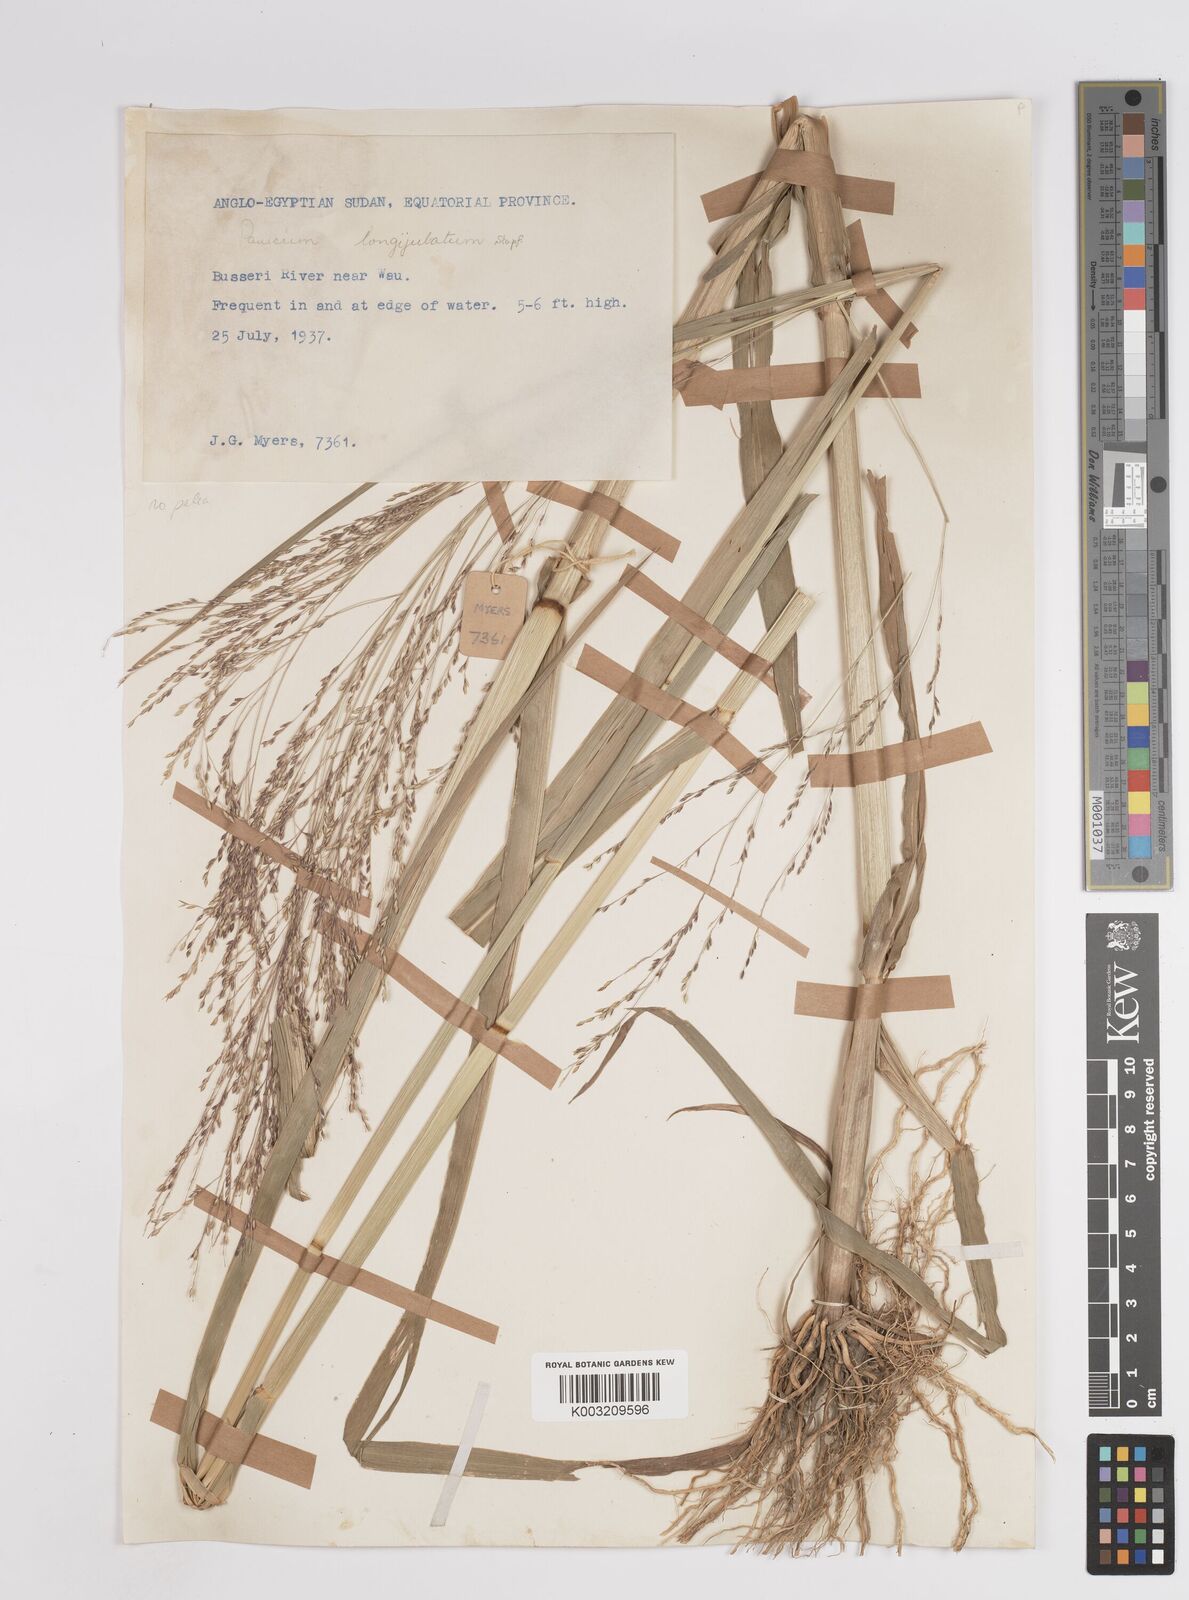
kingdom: Plantae
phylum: Tracheophyta
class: Liliopsida
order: Poales
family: Poaceae
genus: Panicum
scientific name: Panicum subalbidum
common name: Elbow buffalo grass
